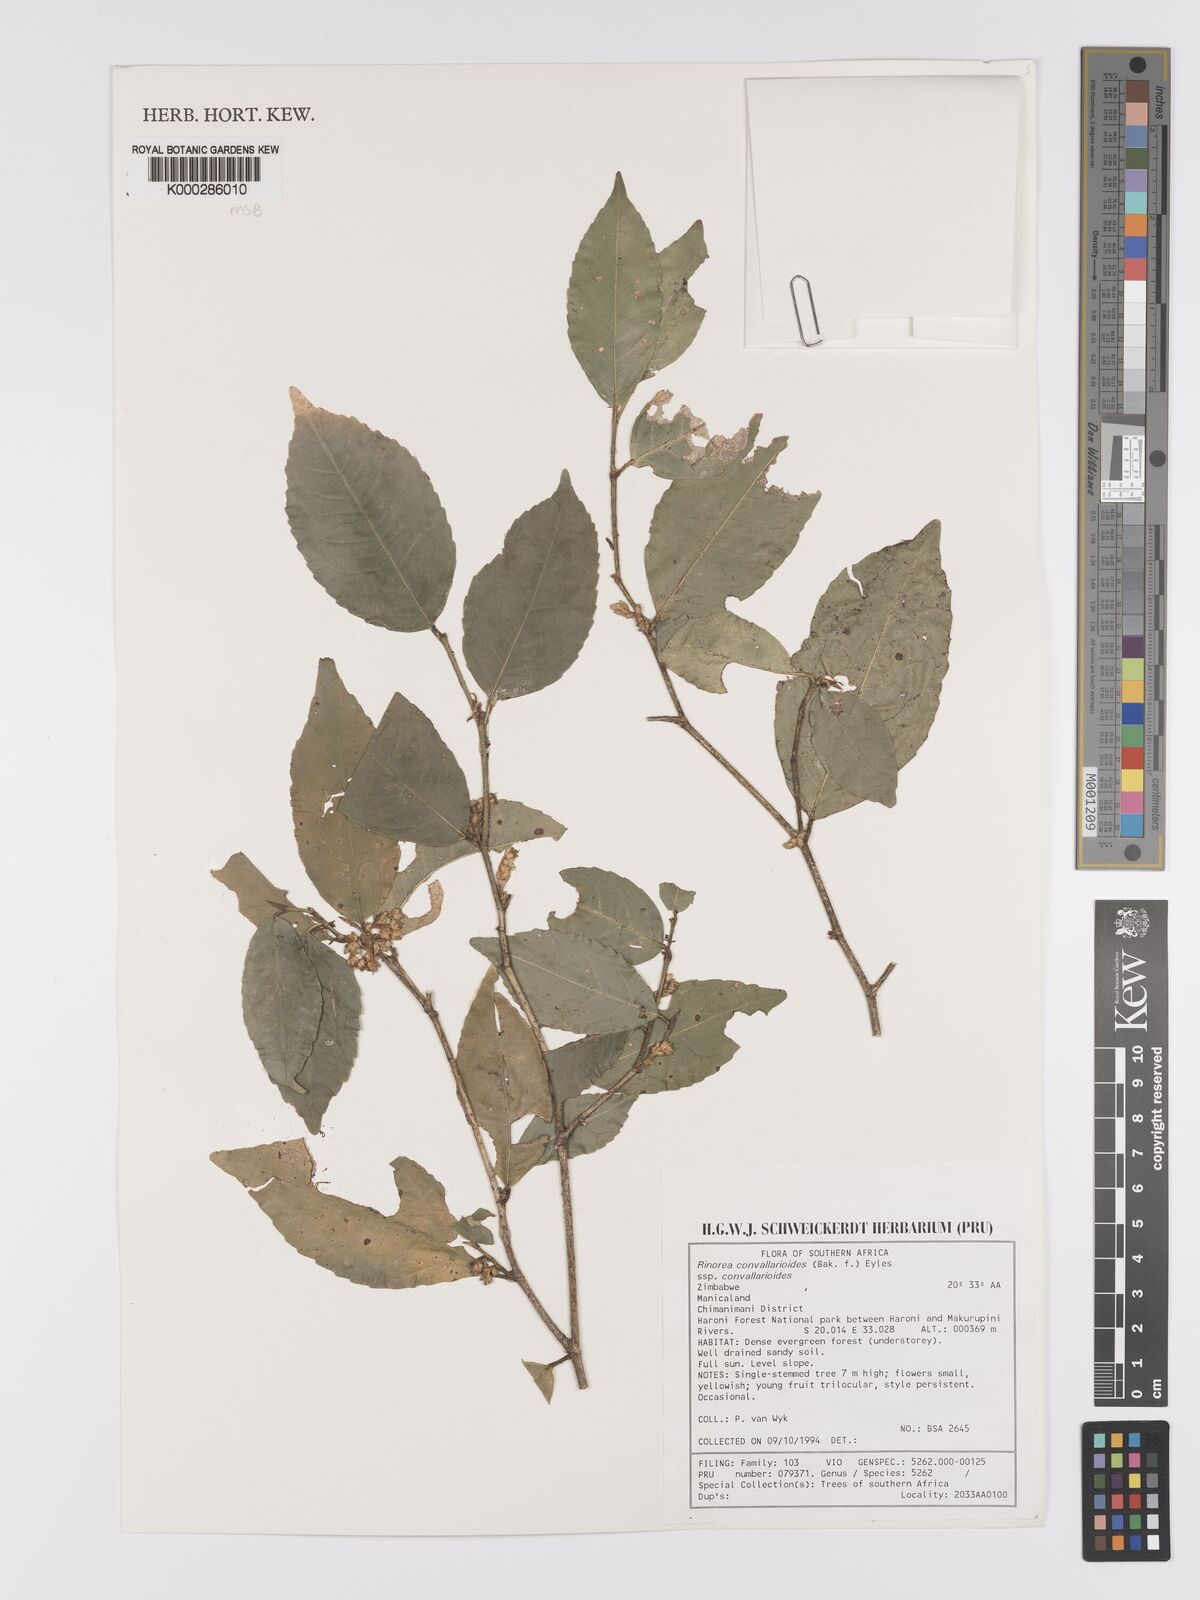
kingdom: Plantae
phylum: Tracheophyta
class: Magnoliopsida
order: Malpighiales
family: Violaceae
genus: Rinorea
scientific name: Rinorea convallarioides
